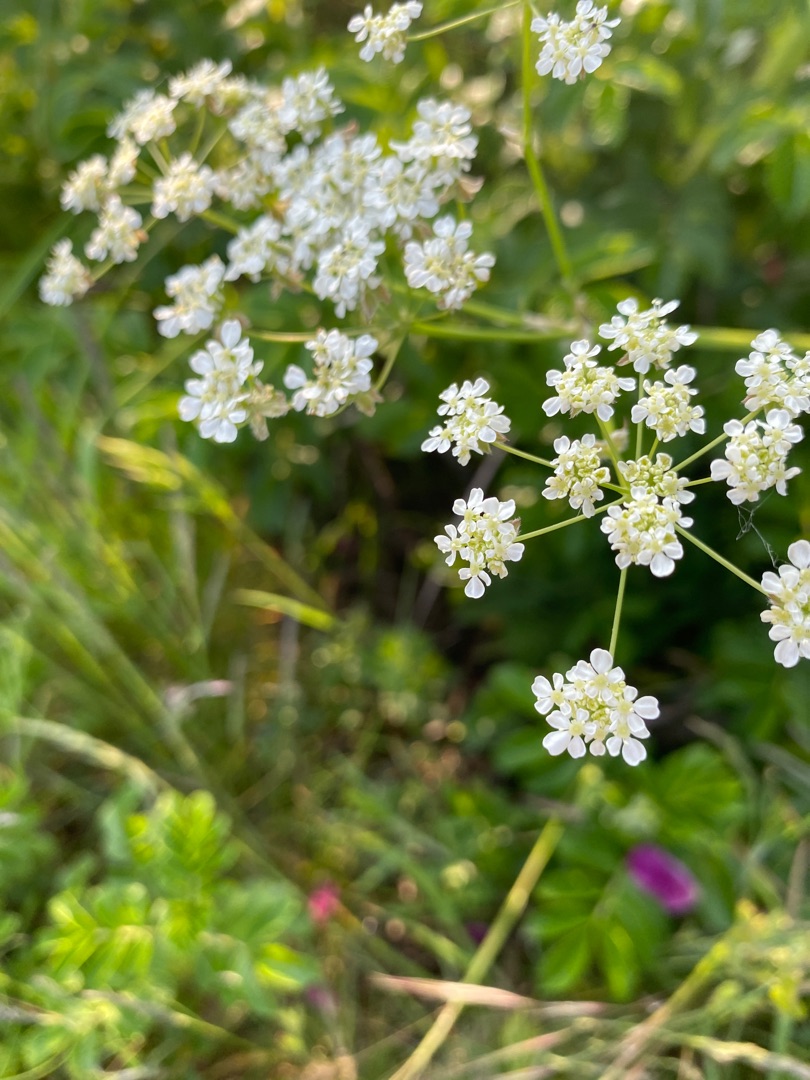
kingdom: Plantae
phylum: Tracheophyta
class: Magnoliopsida
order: Apiales
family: Apiaceae
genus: Anthriscus
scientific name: Anthriscus sylvestris
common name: Vild kørvel
